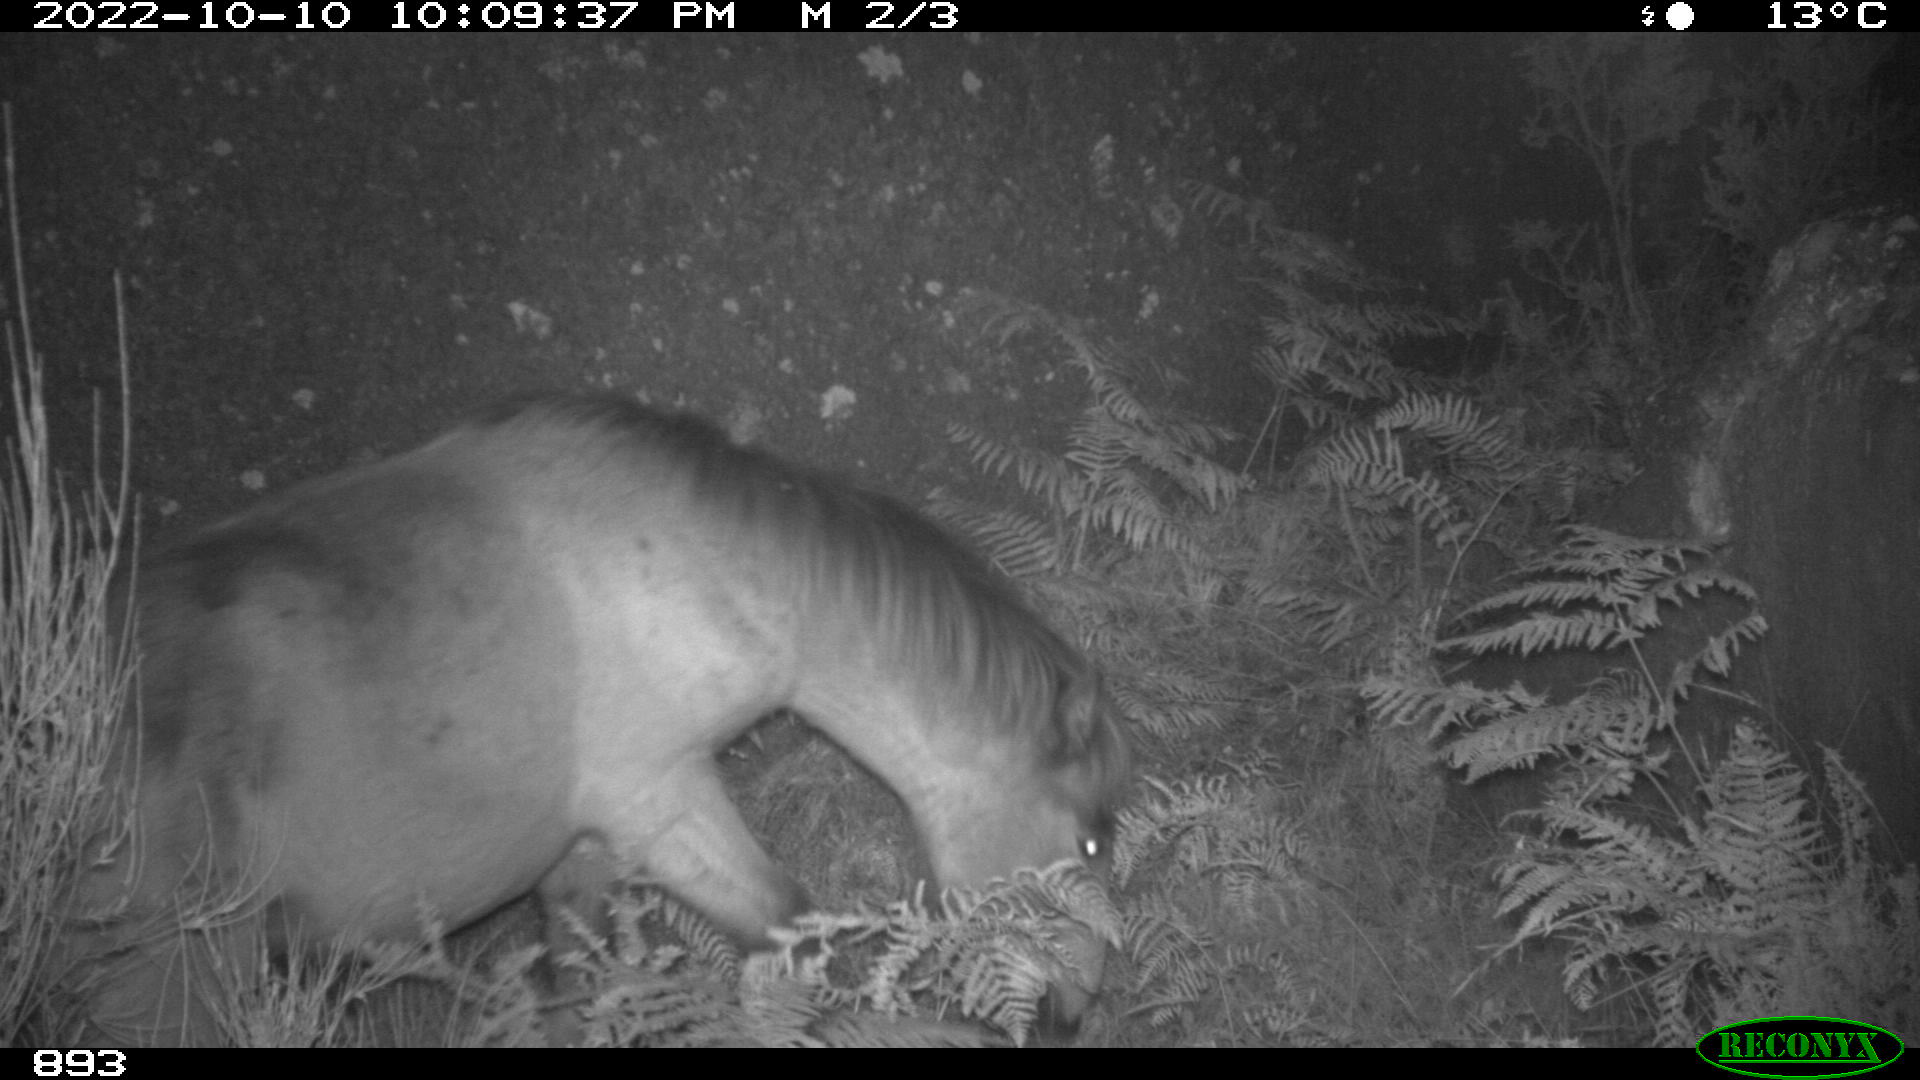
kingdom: Animalia
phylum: Chordata
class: Mammalia
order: Perissodactyla
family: Equidae
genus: Equus
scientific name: Equus caballus
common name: Horse
